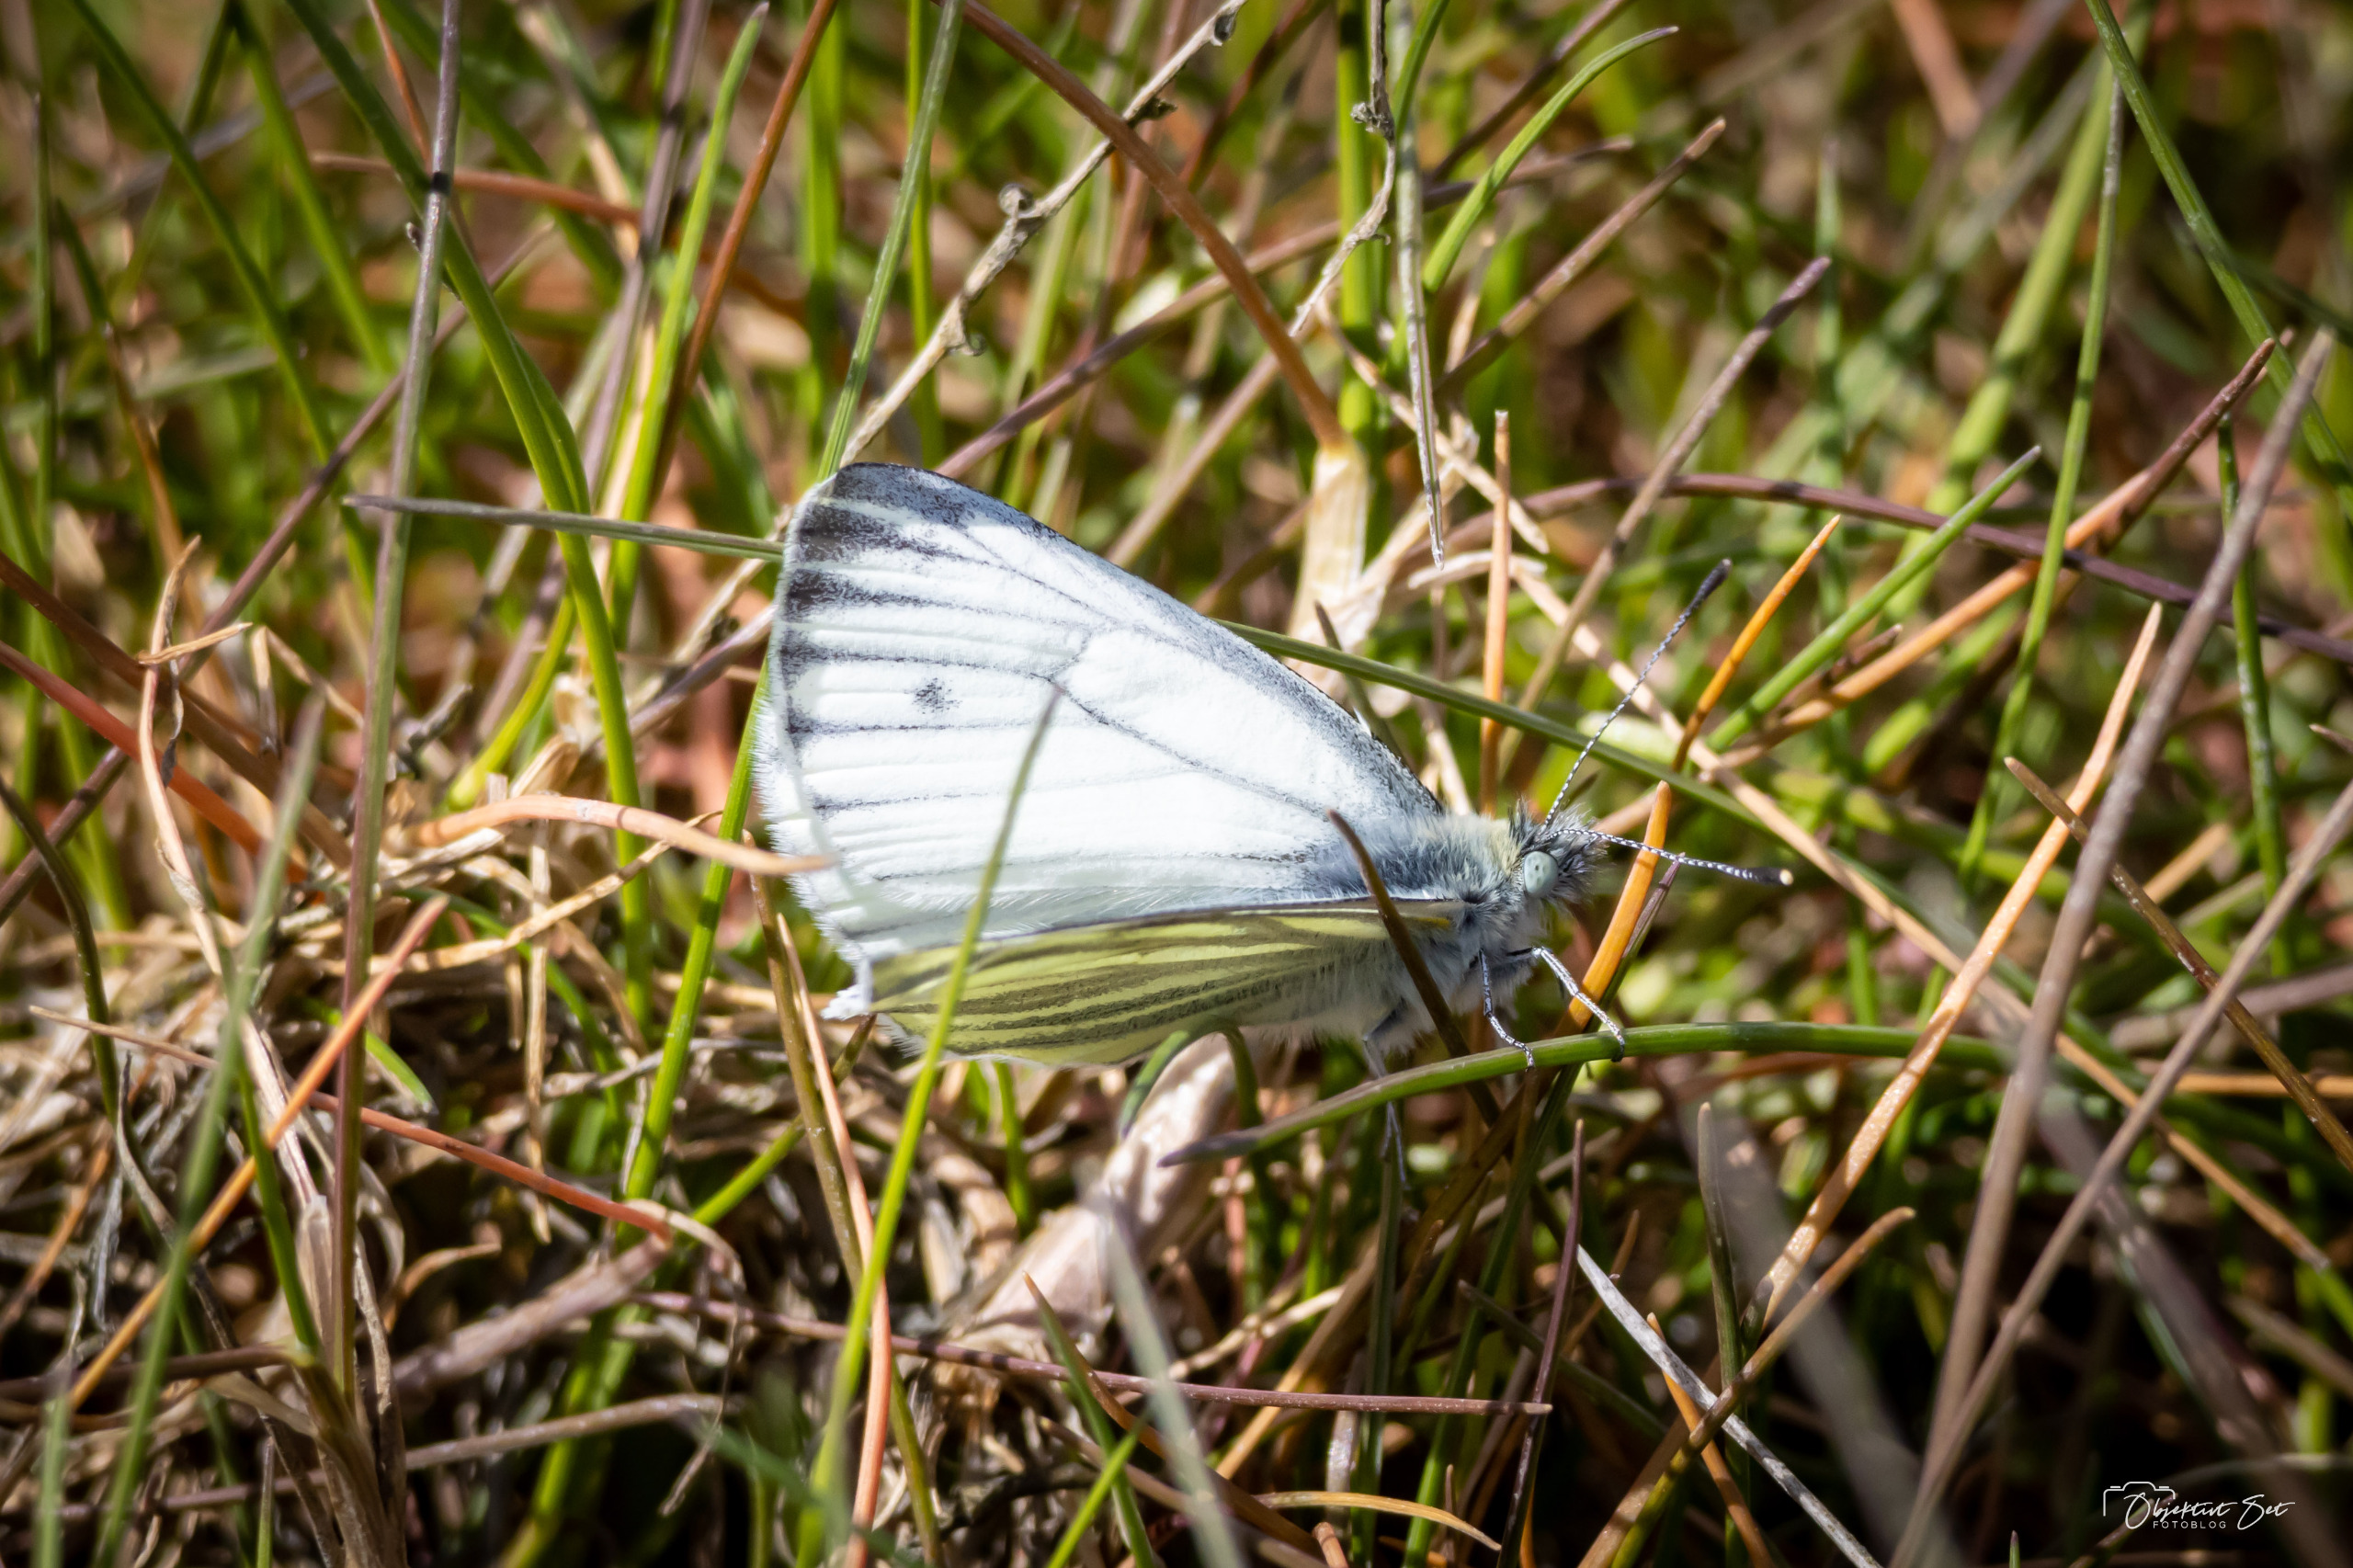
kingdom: Animalia
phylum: Arthropoda
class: Insecta
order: Lepidoptera
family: Pieridae
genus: Pieris
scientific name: Pieris napi
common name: Grønåret kålsommerfugl
